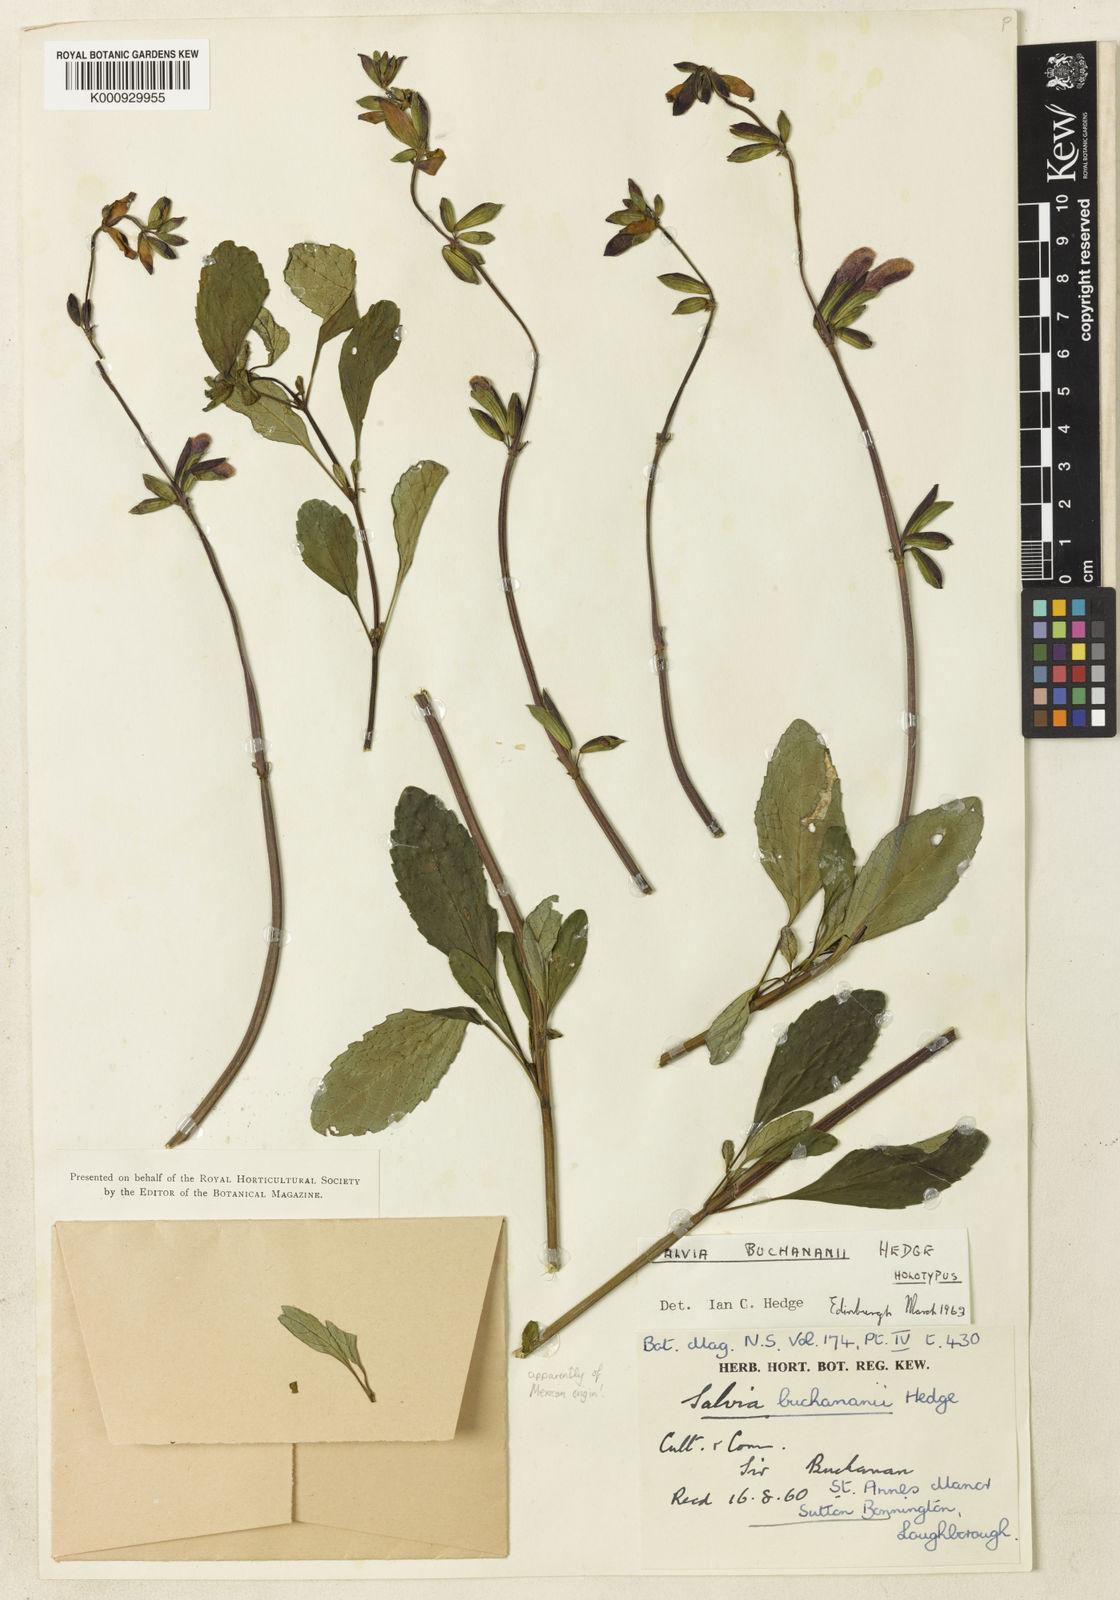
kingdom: Plantae
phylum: Tracheophyta
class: Magnoliopsida
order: Lamiales
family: Lamiaceae
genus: Salvia
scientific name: Salvia buchananii
